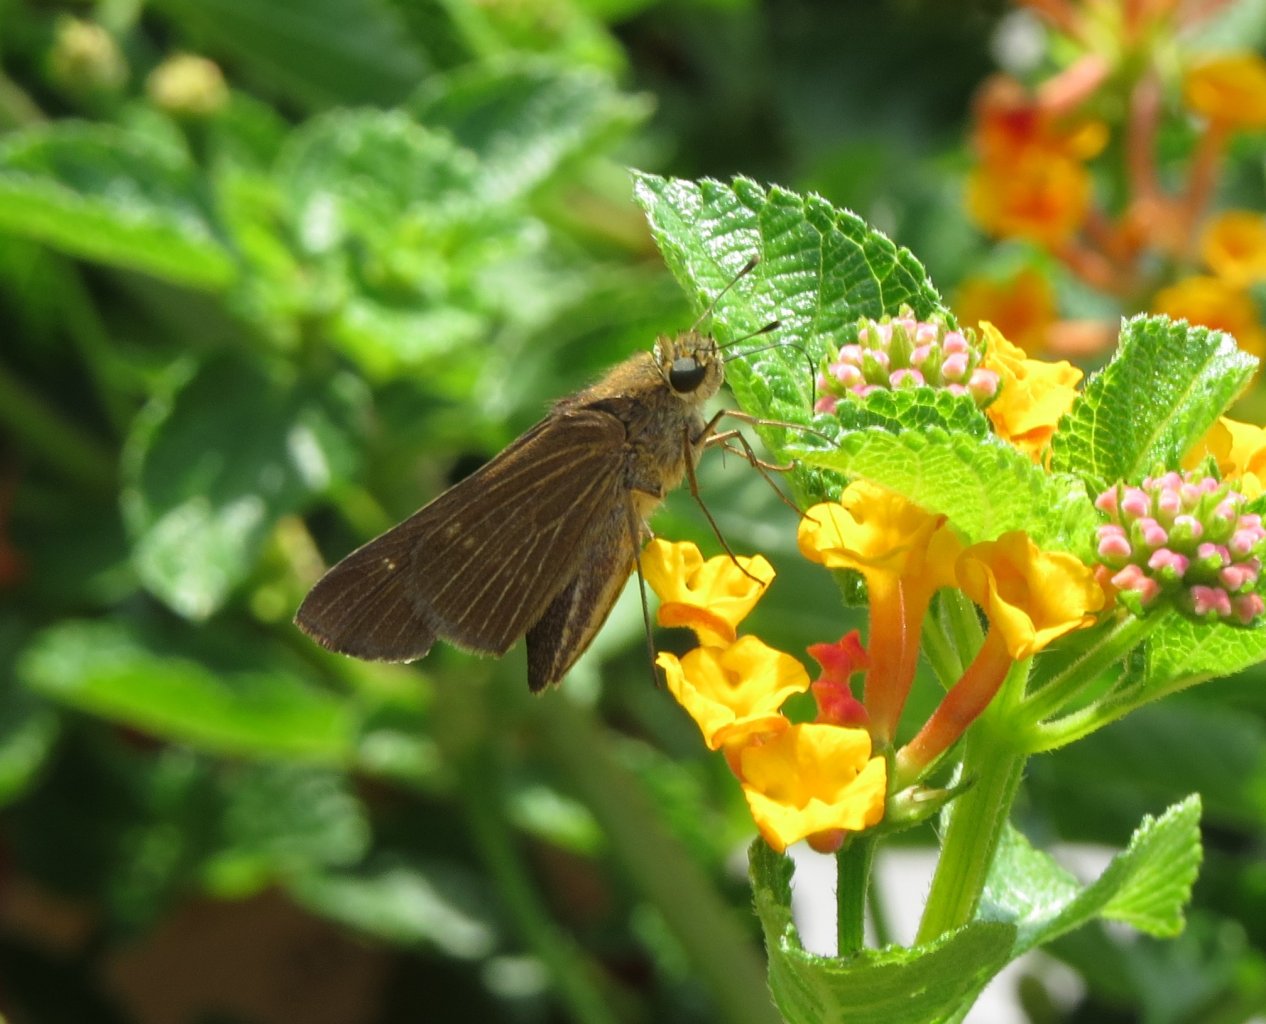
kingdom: Animalia
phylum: Arthropoda
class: Insecta
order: Lepidoptera
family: Hesperiidae
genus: Panoquina
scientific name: Panoquina ocola
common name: Ocola Skipper
